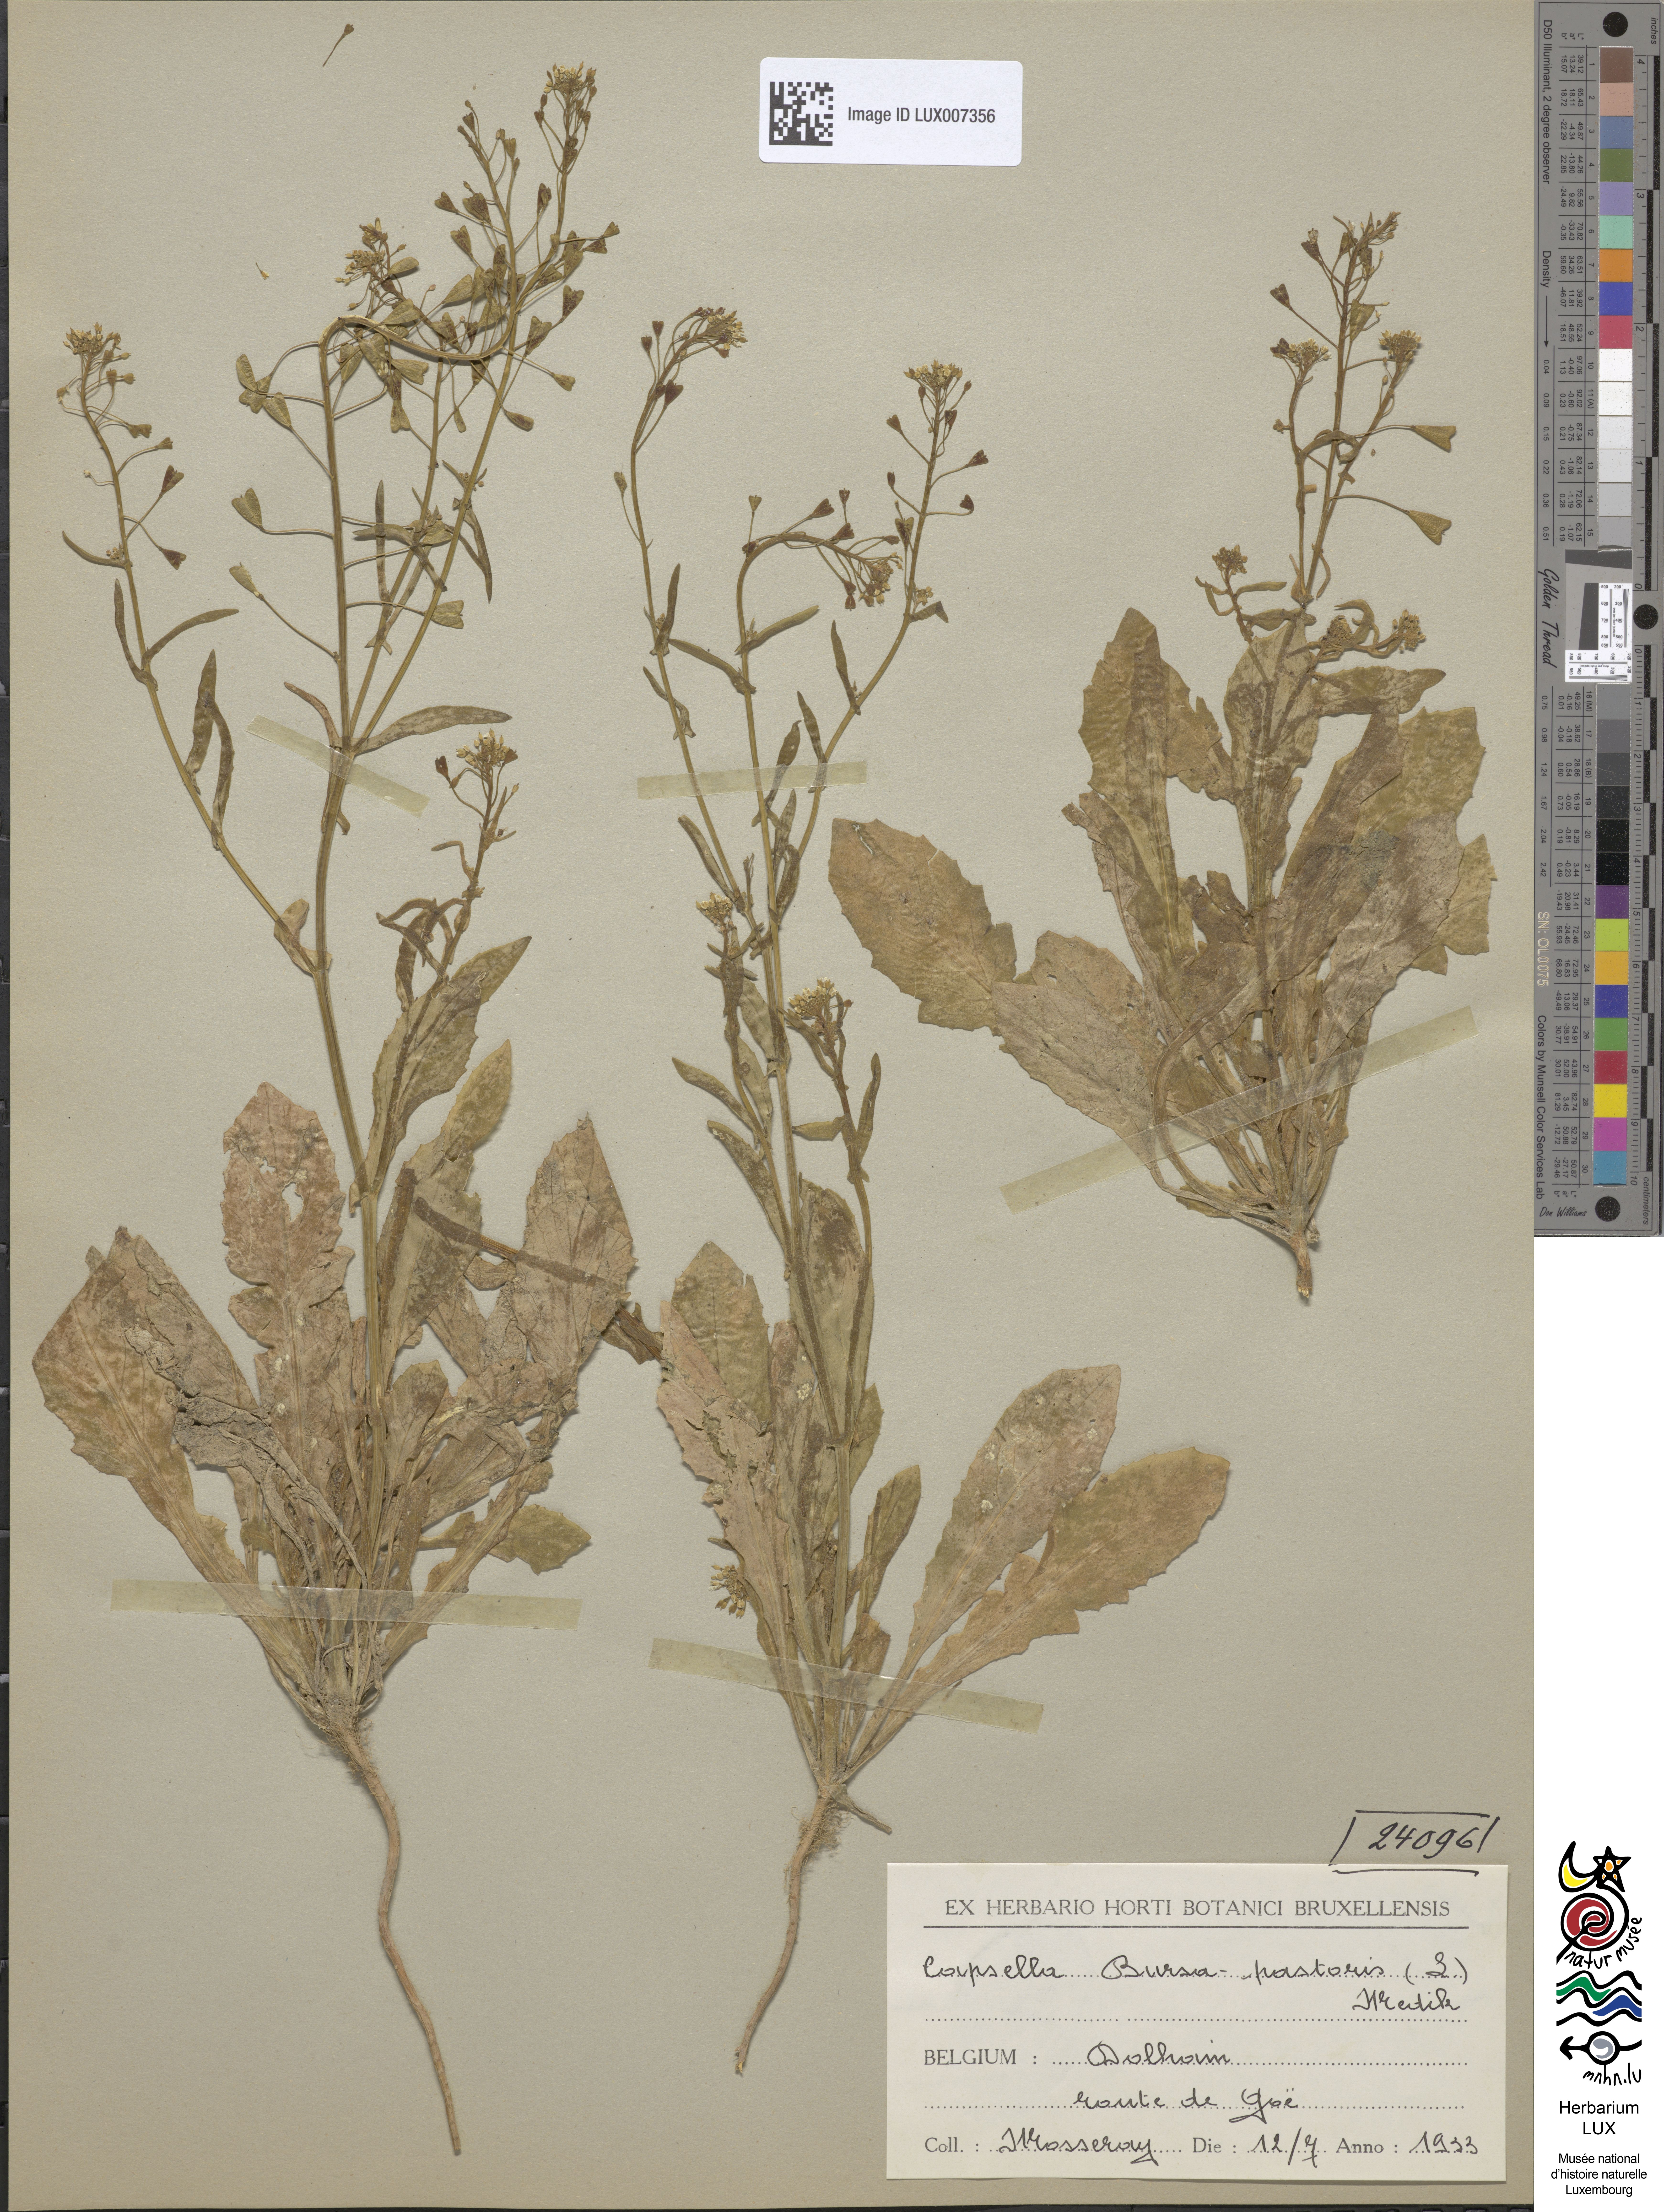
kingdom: Plantae
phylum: Tracheophyta
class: Magnoliopsida
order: Brassicales
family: Brassicaceae
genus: Capsella
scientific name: Capsella bursa-pastoris
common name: Shepherd's purse
